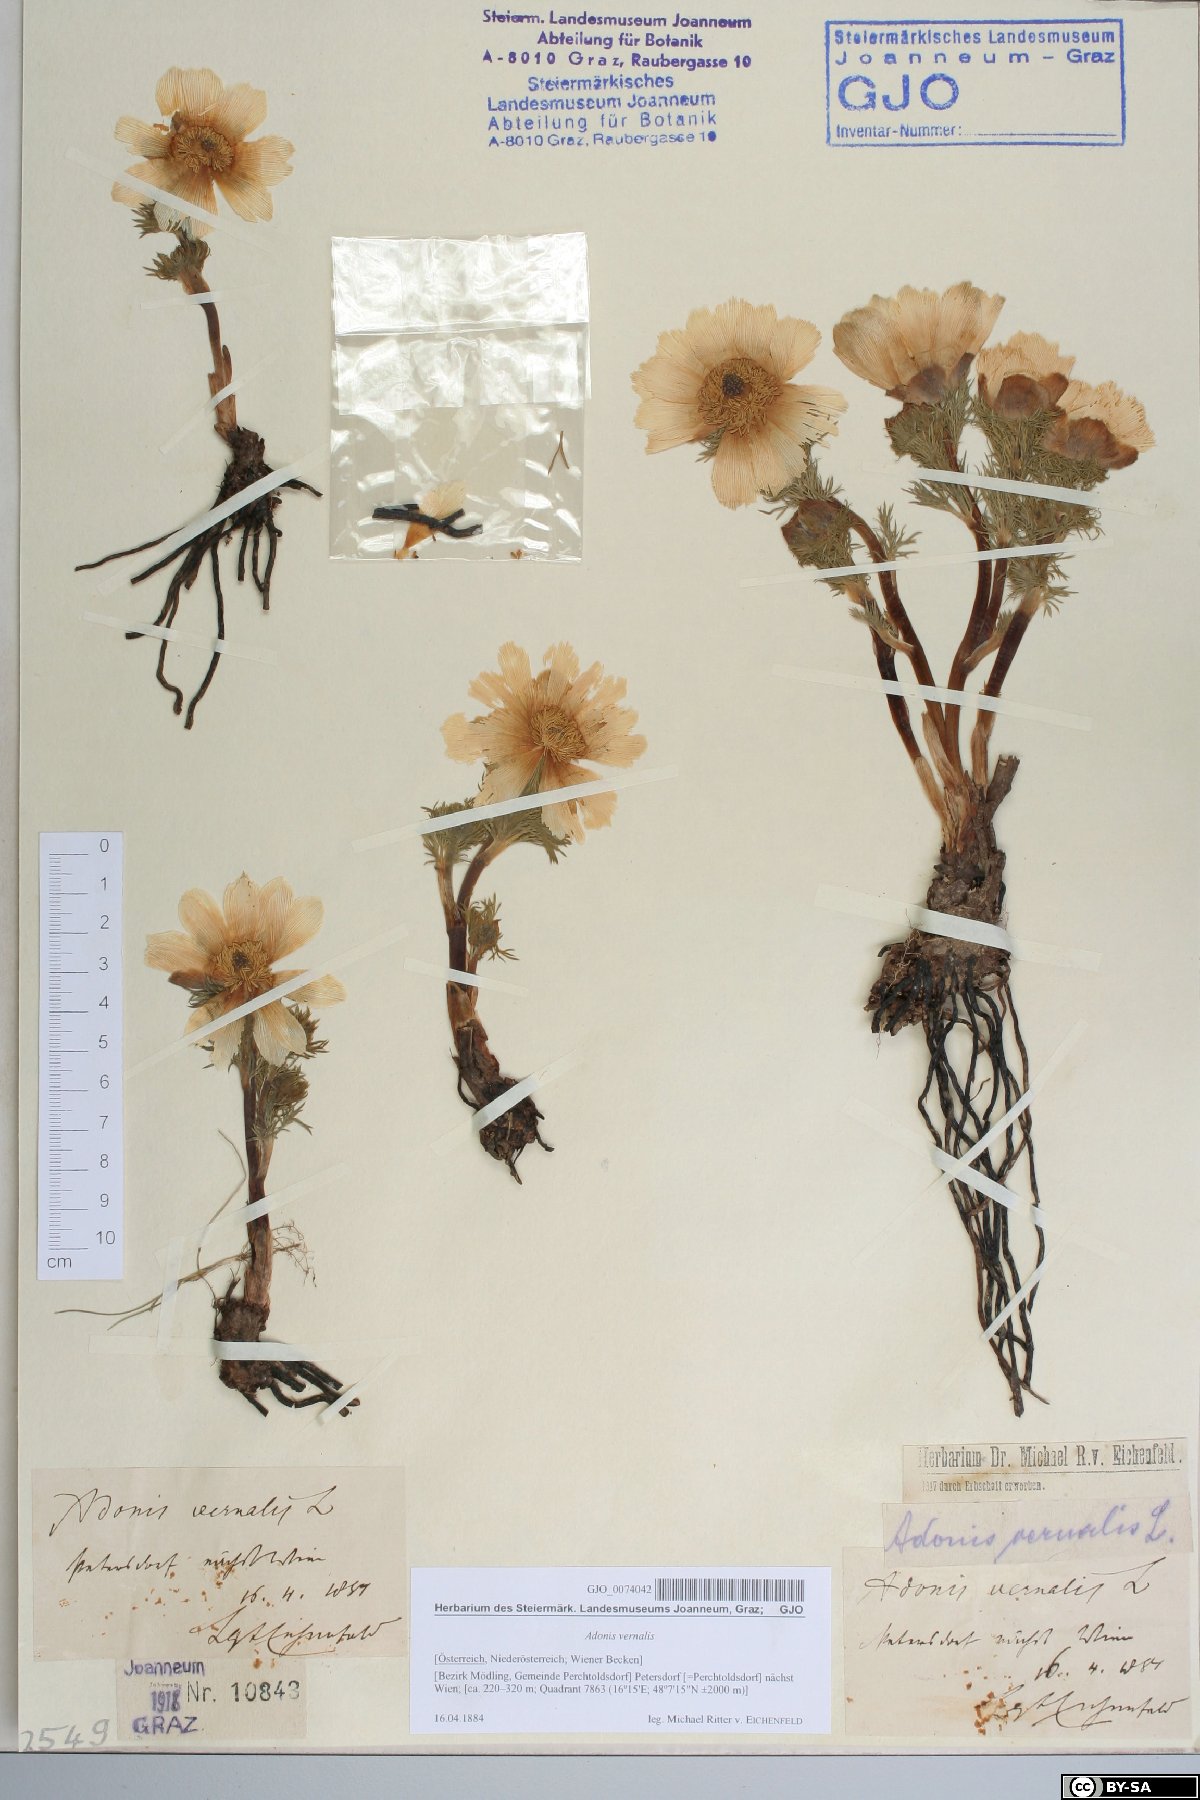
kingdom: Plantae
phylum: Tracheophyta
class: Magnoliopsida
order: Ranunculales
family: Ranunculaceae
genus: Adonis
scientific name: Adonis vernalis
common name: Yellow pheasants-eye
